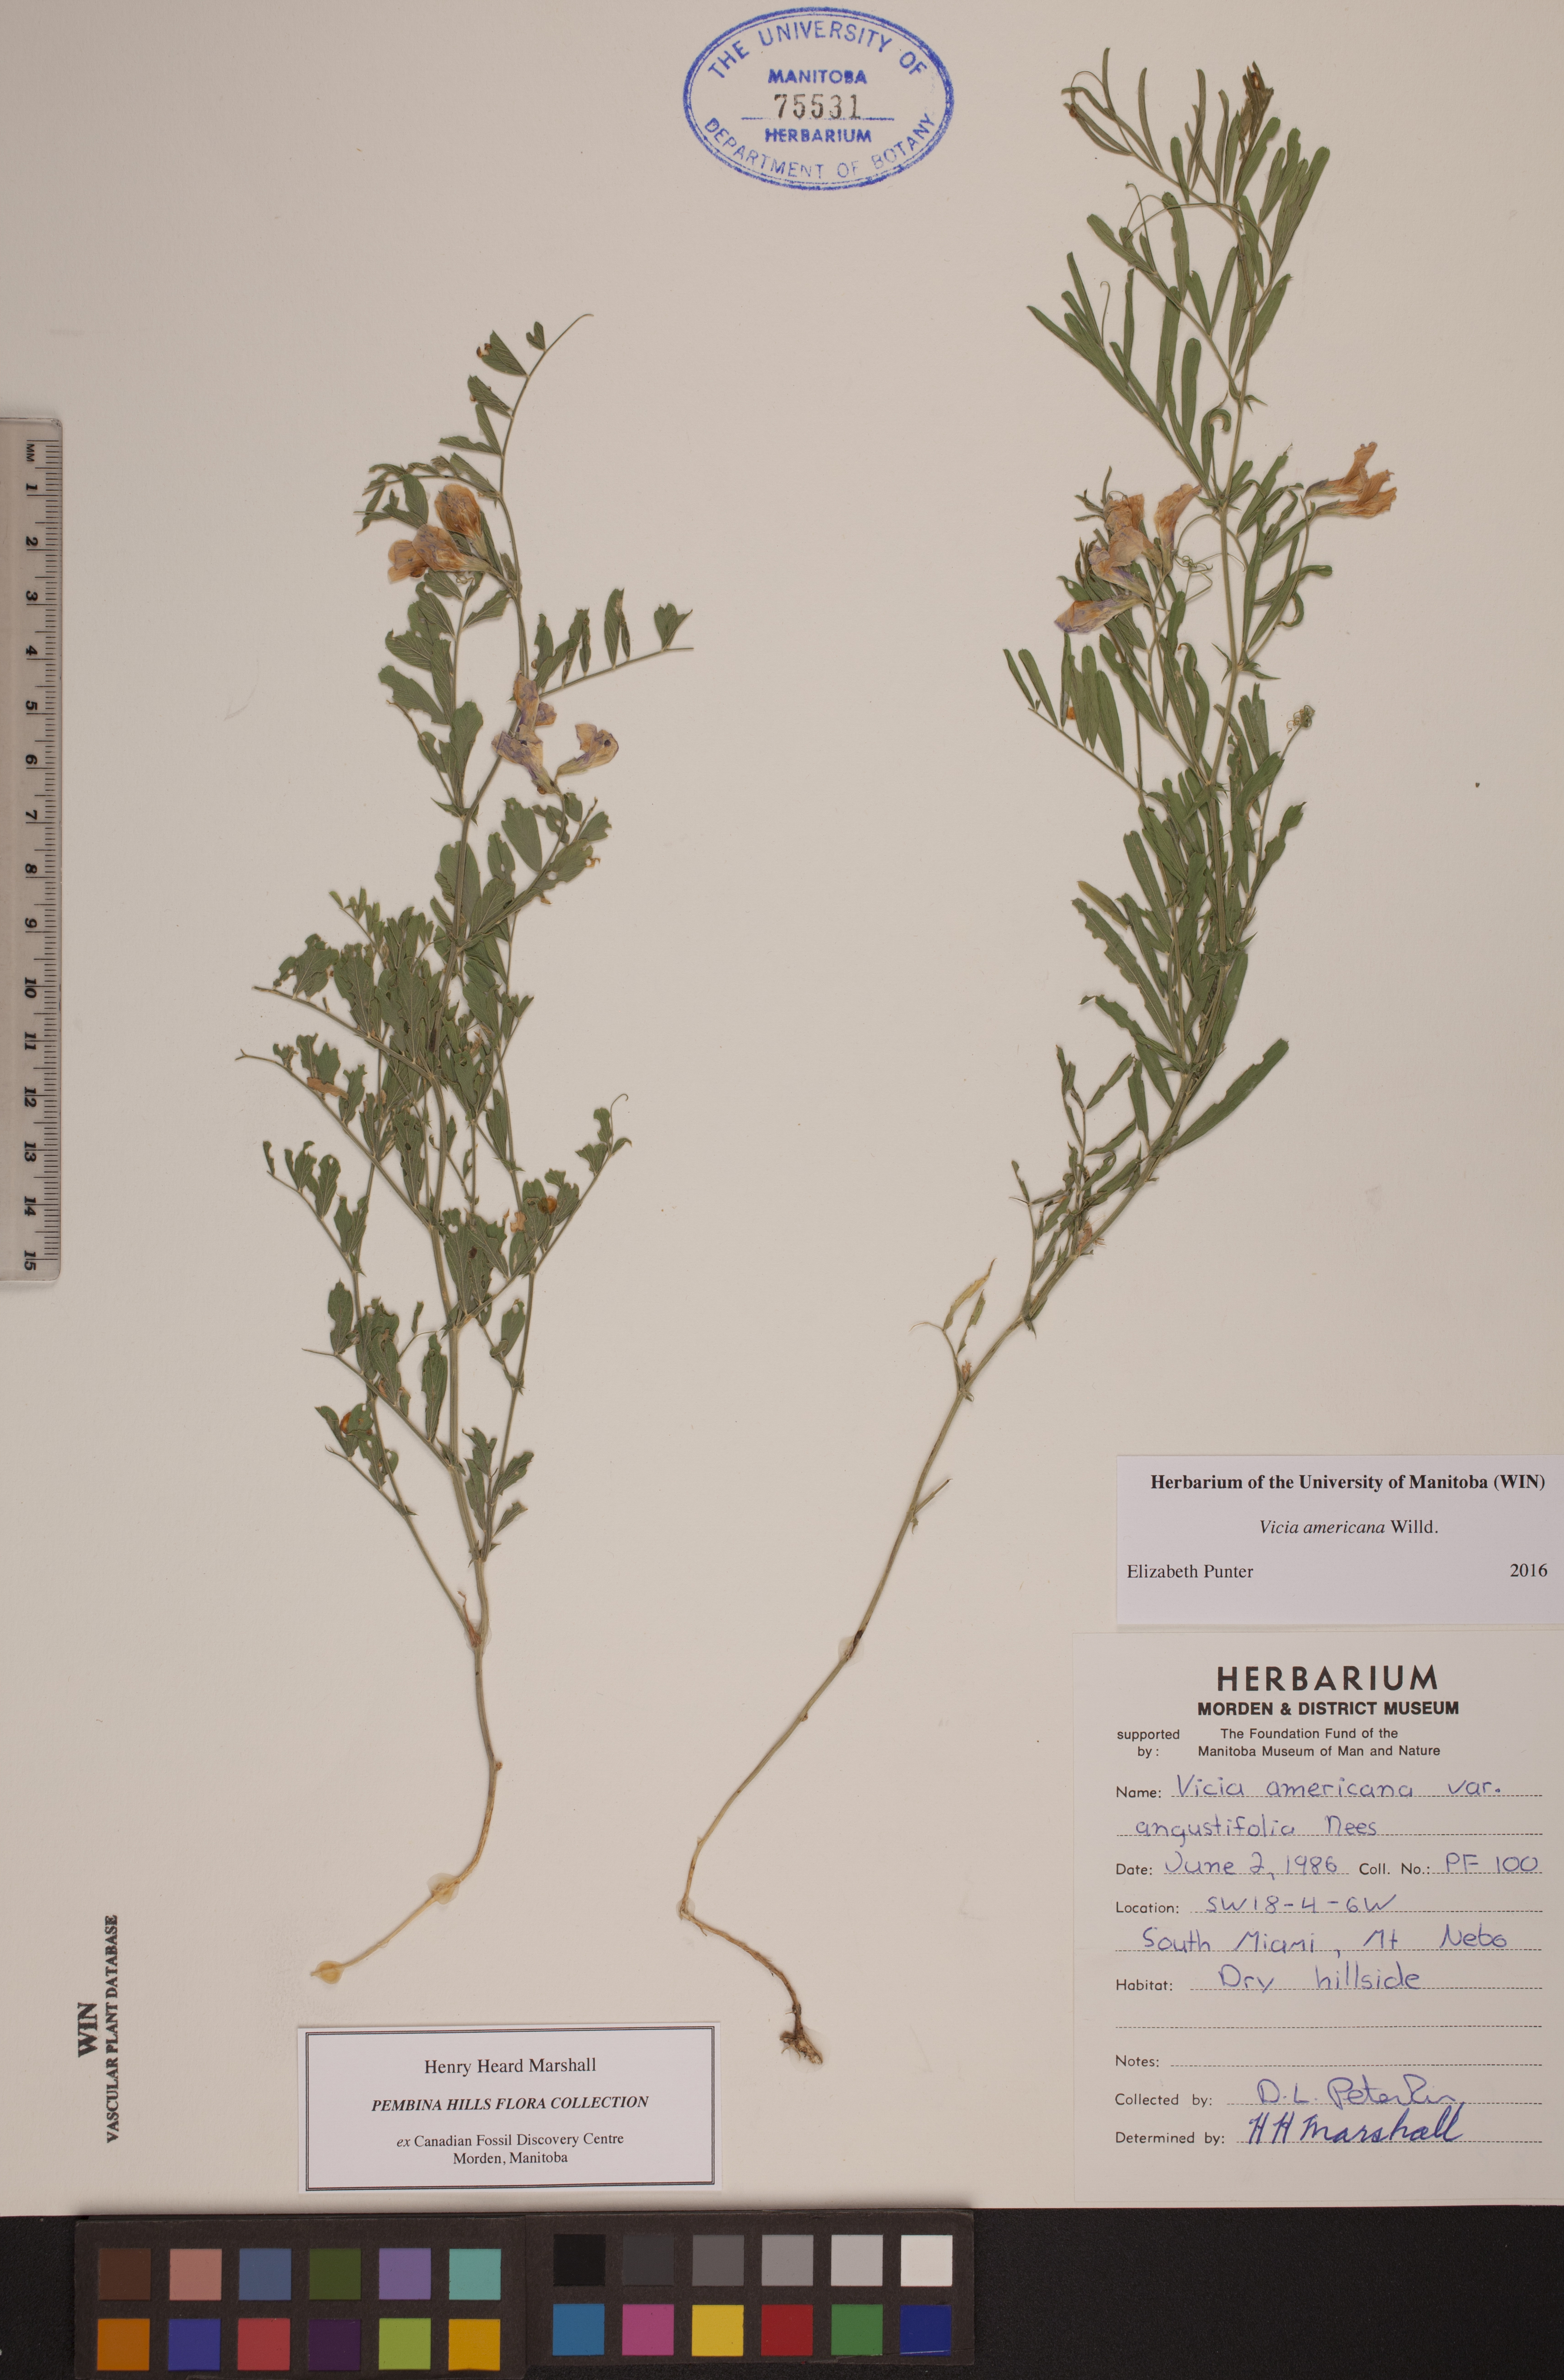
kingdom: Plantae
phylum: Tracheophyta
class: Magnoliopsida
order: Fabales
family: Fabaceae
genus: Vicia
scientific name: Vicia americana
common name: American vetch
